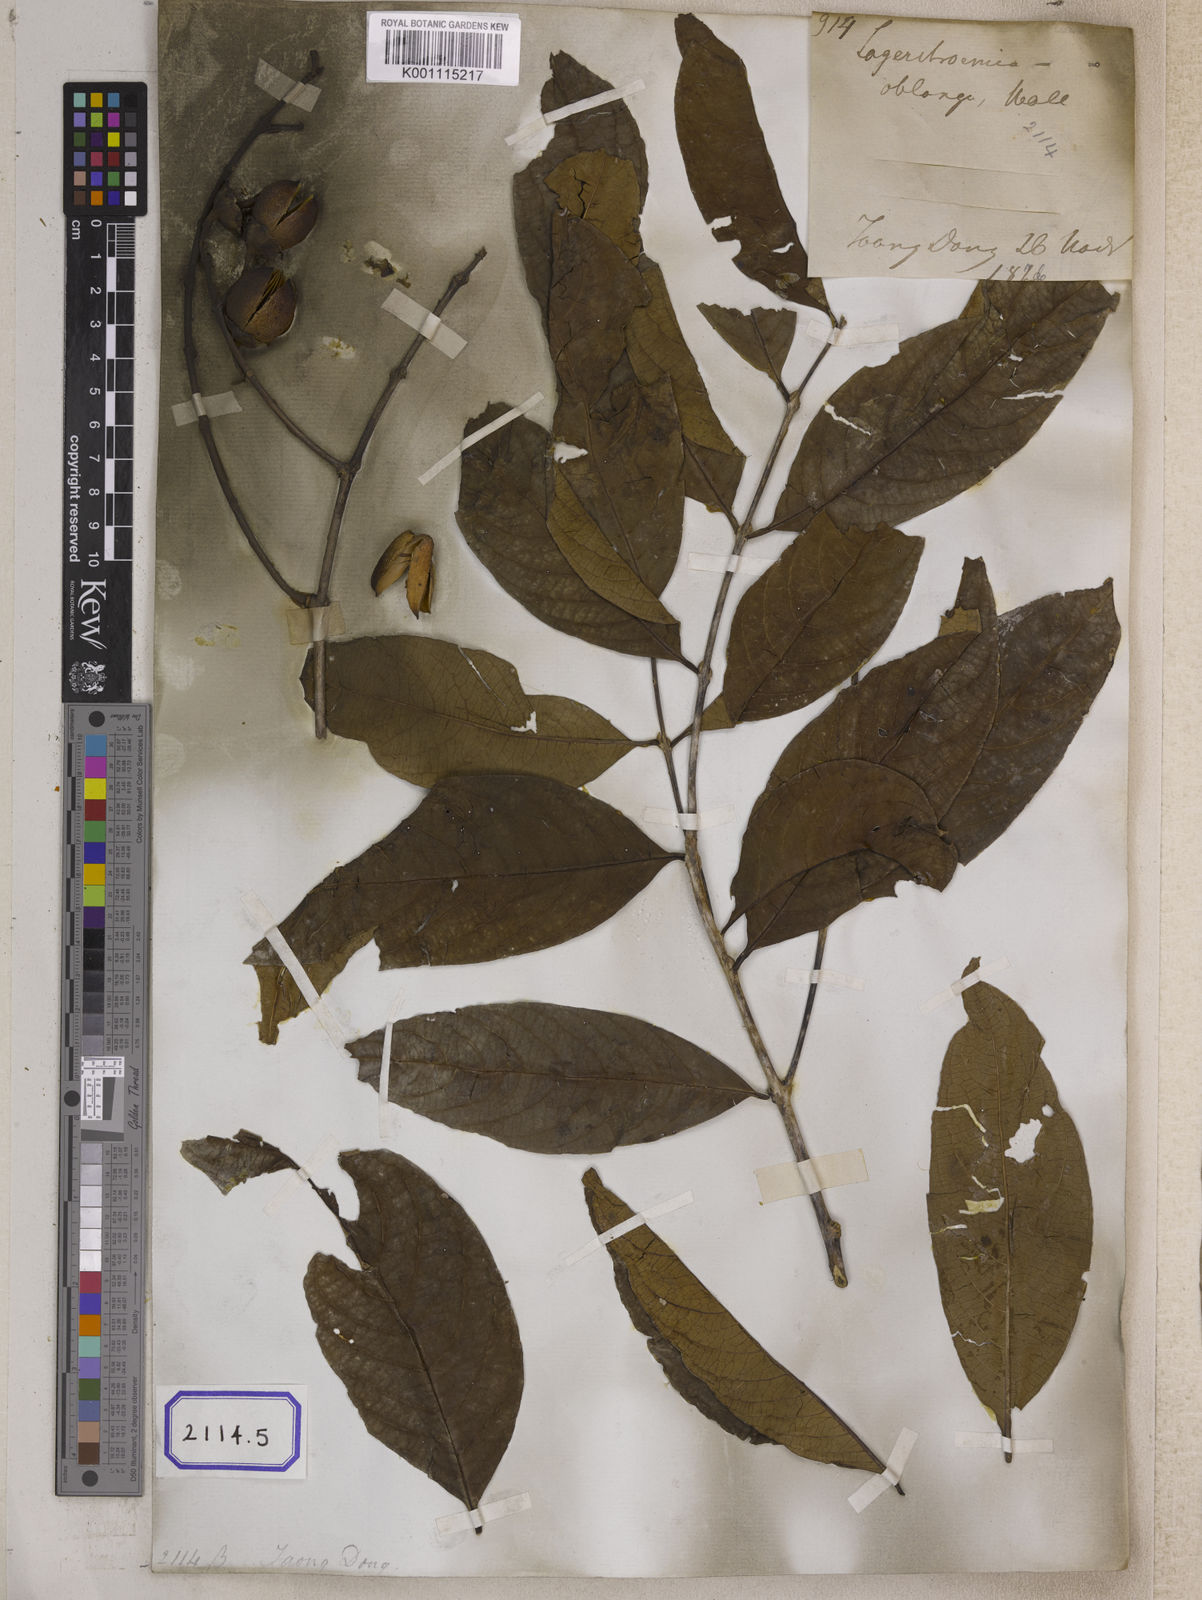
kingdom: Plantae
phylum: Tracheophyta
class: Magnoliopsida
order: Myrtales
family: Lythraceae
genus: Lagerstroemia
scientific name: Lagerstroemia
